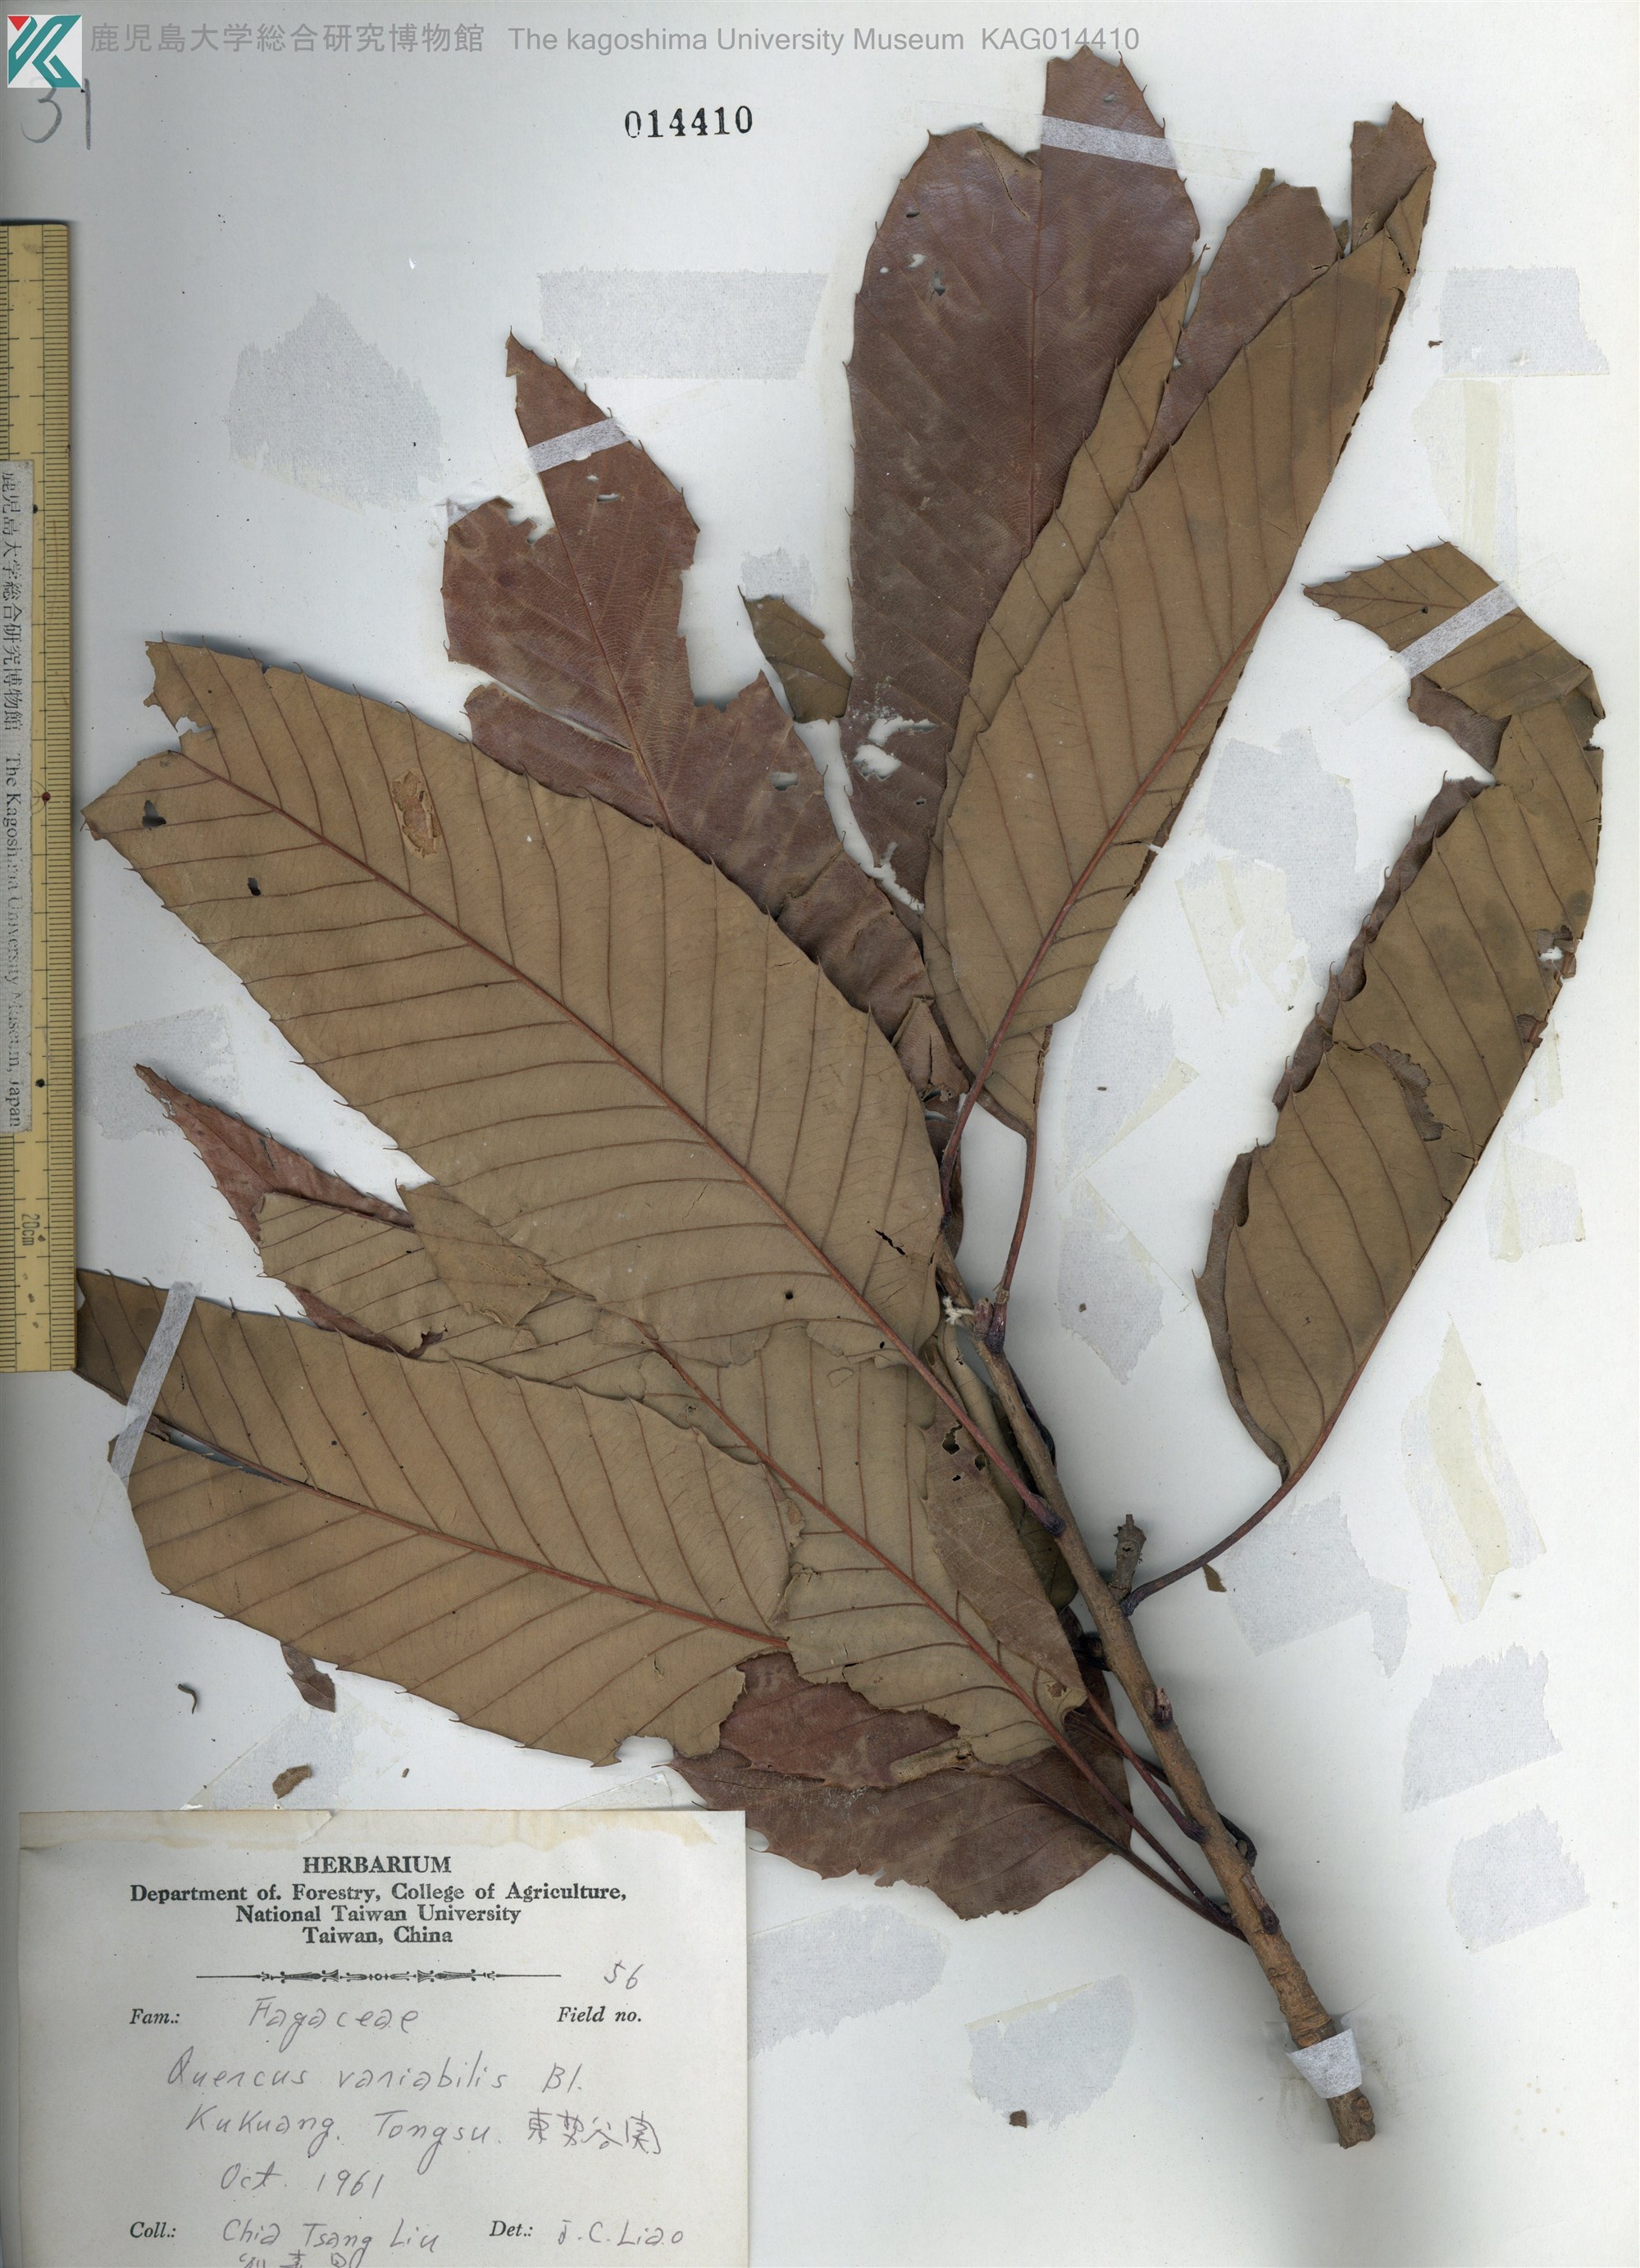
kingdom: Plantae
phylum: Tracheophyta
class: Magnoliopsida
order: Fagales
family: Fagaceae
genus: Quercus
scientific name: Quercus variabilis
